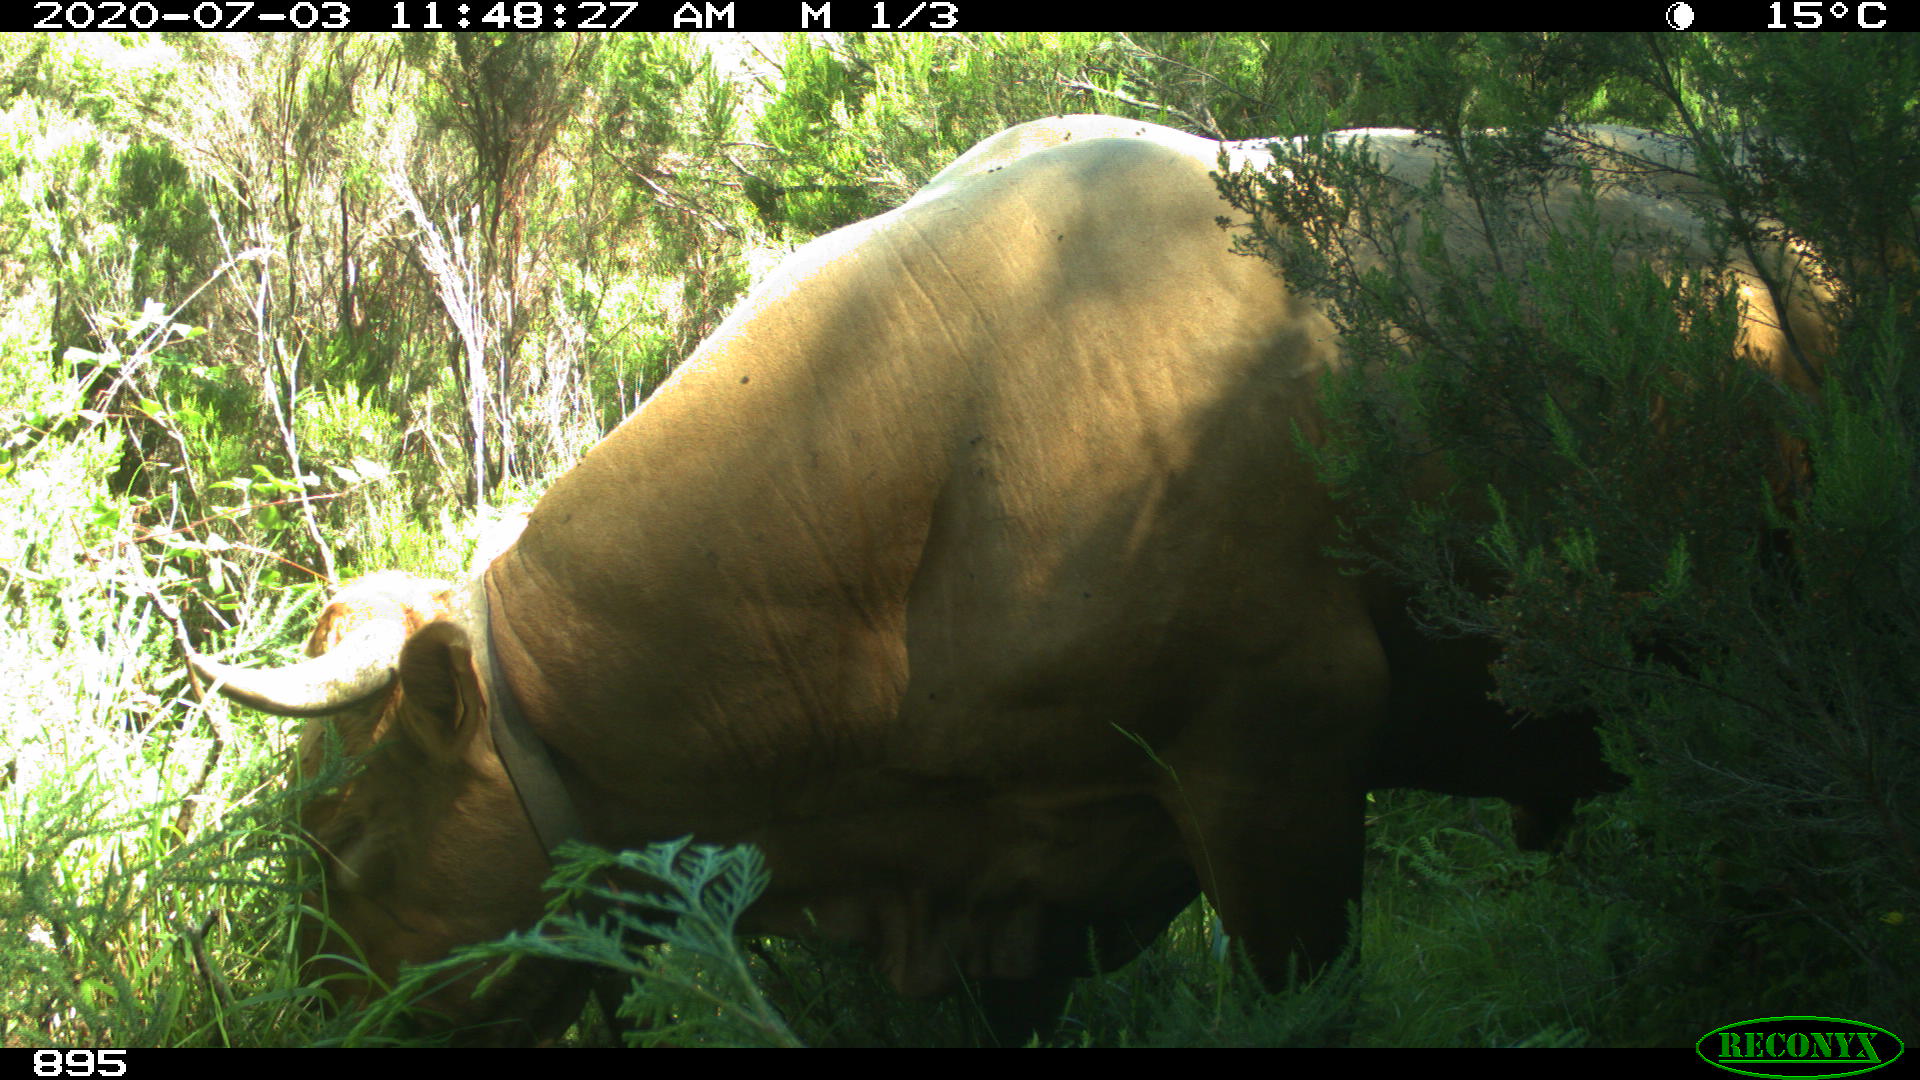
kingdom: Animalia
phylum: Chordata
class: Mammalia
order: Artiodactyla
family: Bovidae
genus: Bos
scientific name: Bos taurus
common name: Domesticated cattle
